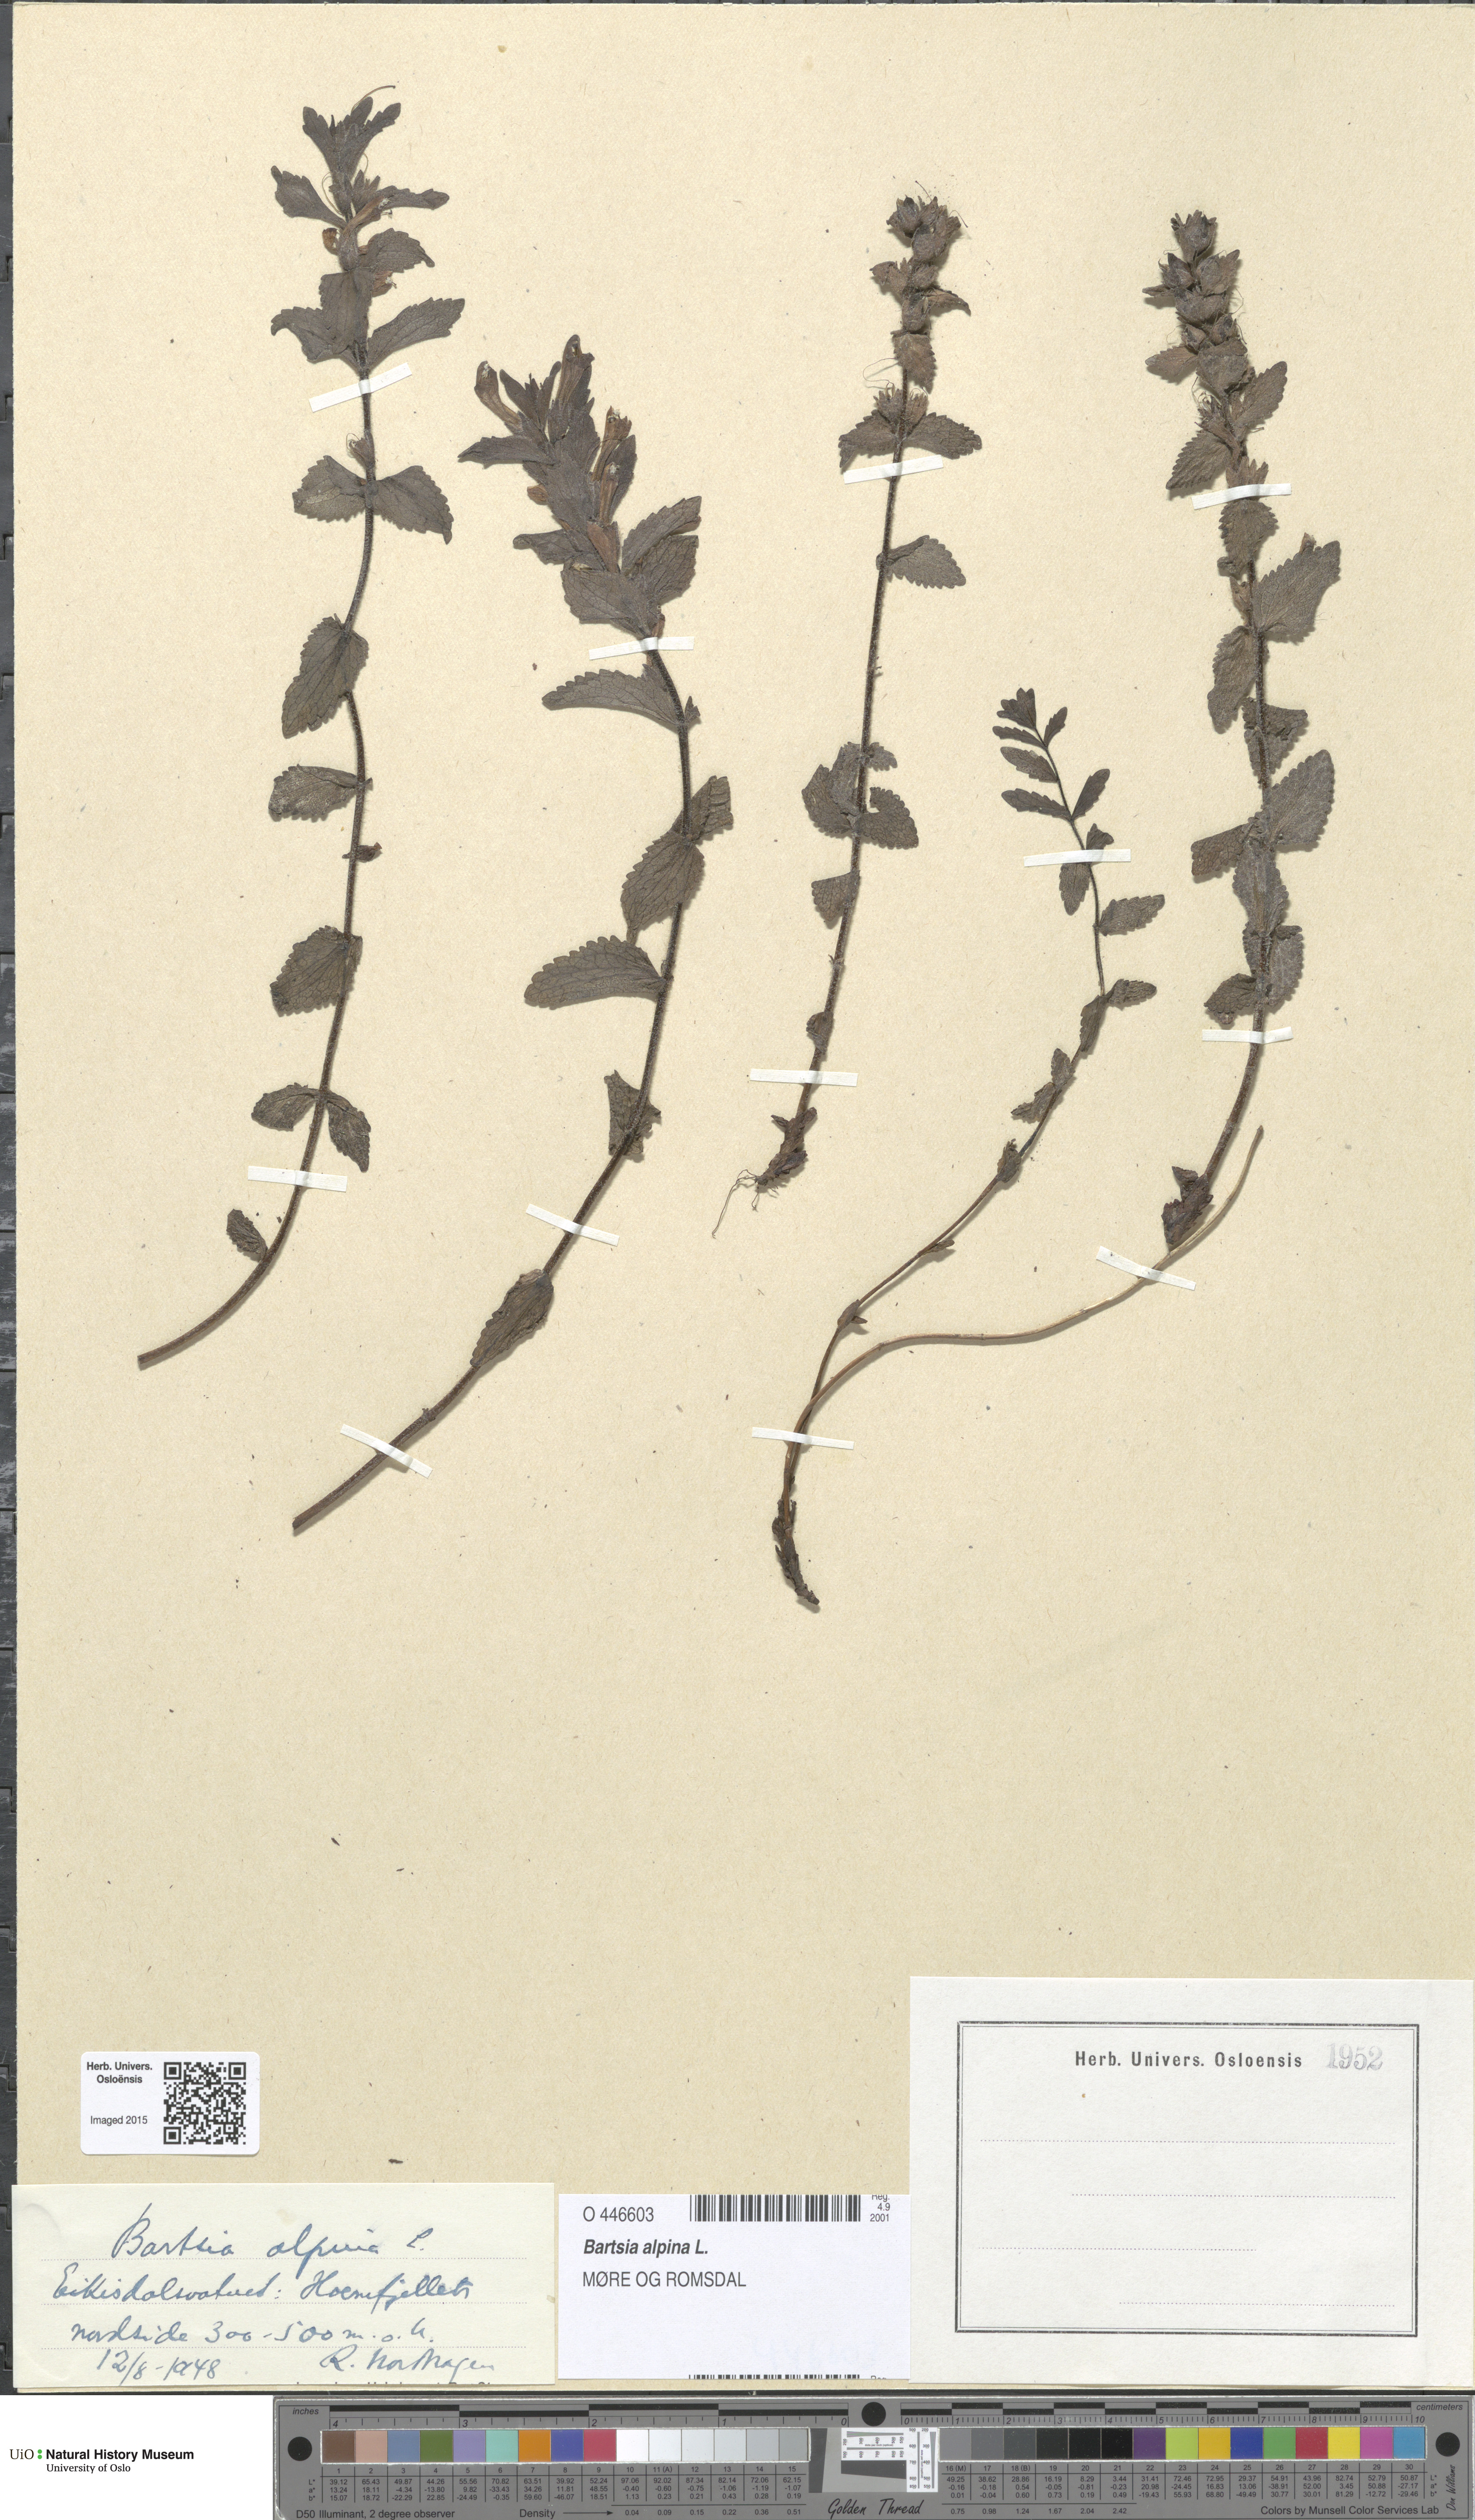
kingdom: Plantae
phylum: Tracheophyta
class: Magnoliopsida
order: Lamiales
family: Orobanchaceae
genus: Bartsia
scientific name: Bartsia alpina
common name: Alpine bartsia
